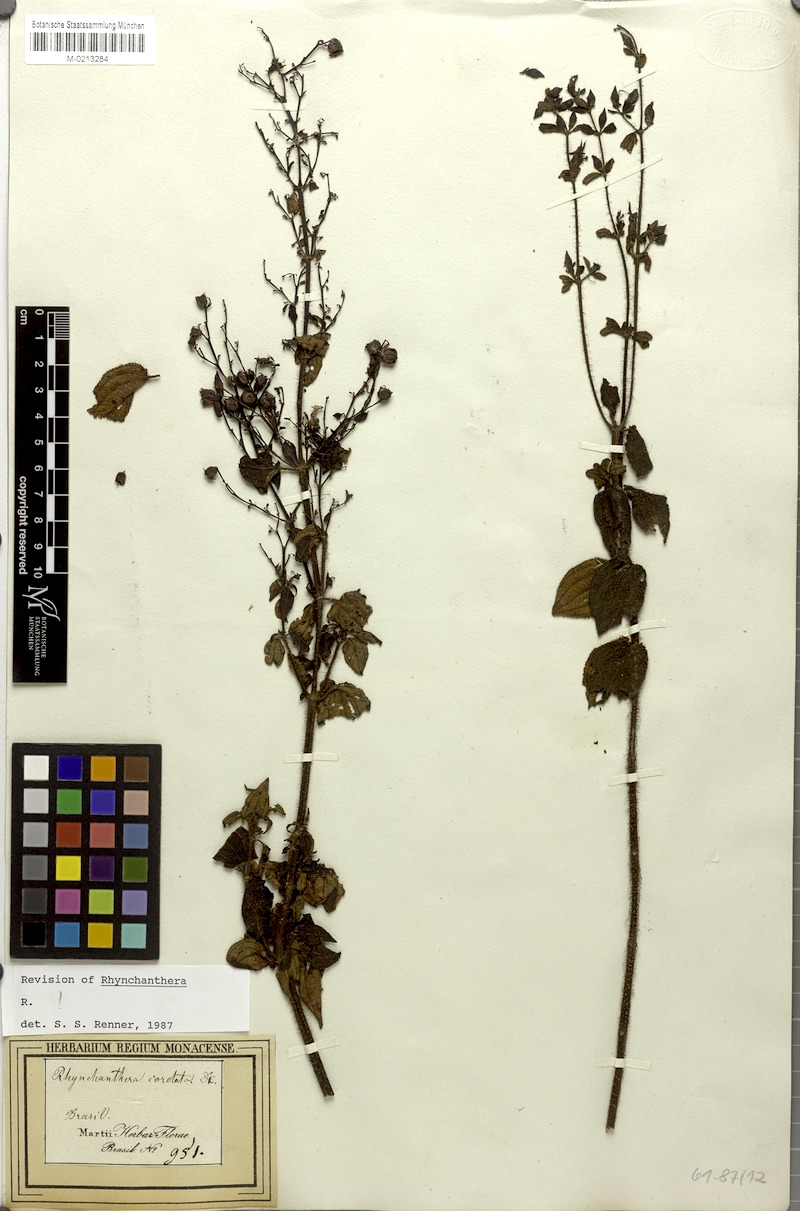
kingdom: Plantae
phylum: Tracheophyta
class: Magnoliopsida
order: Myrtales
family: Melastomataceae
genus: Rhynchanthera
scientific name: Rhynchanthera cordata
